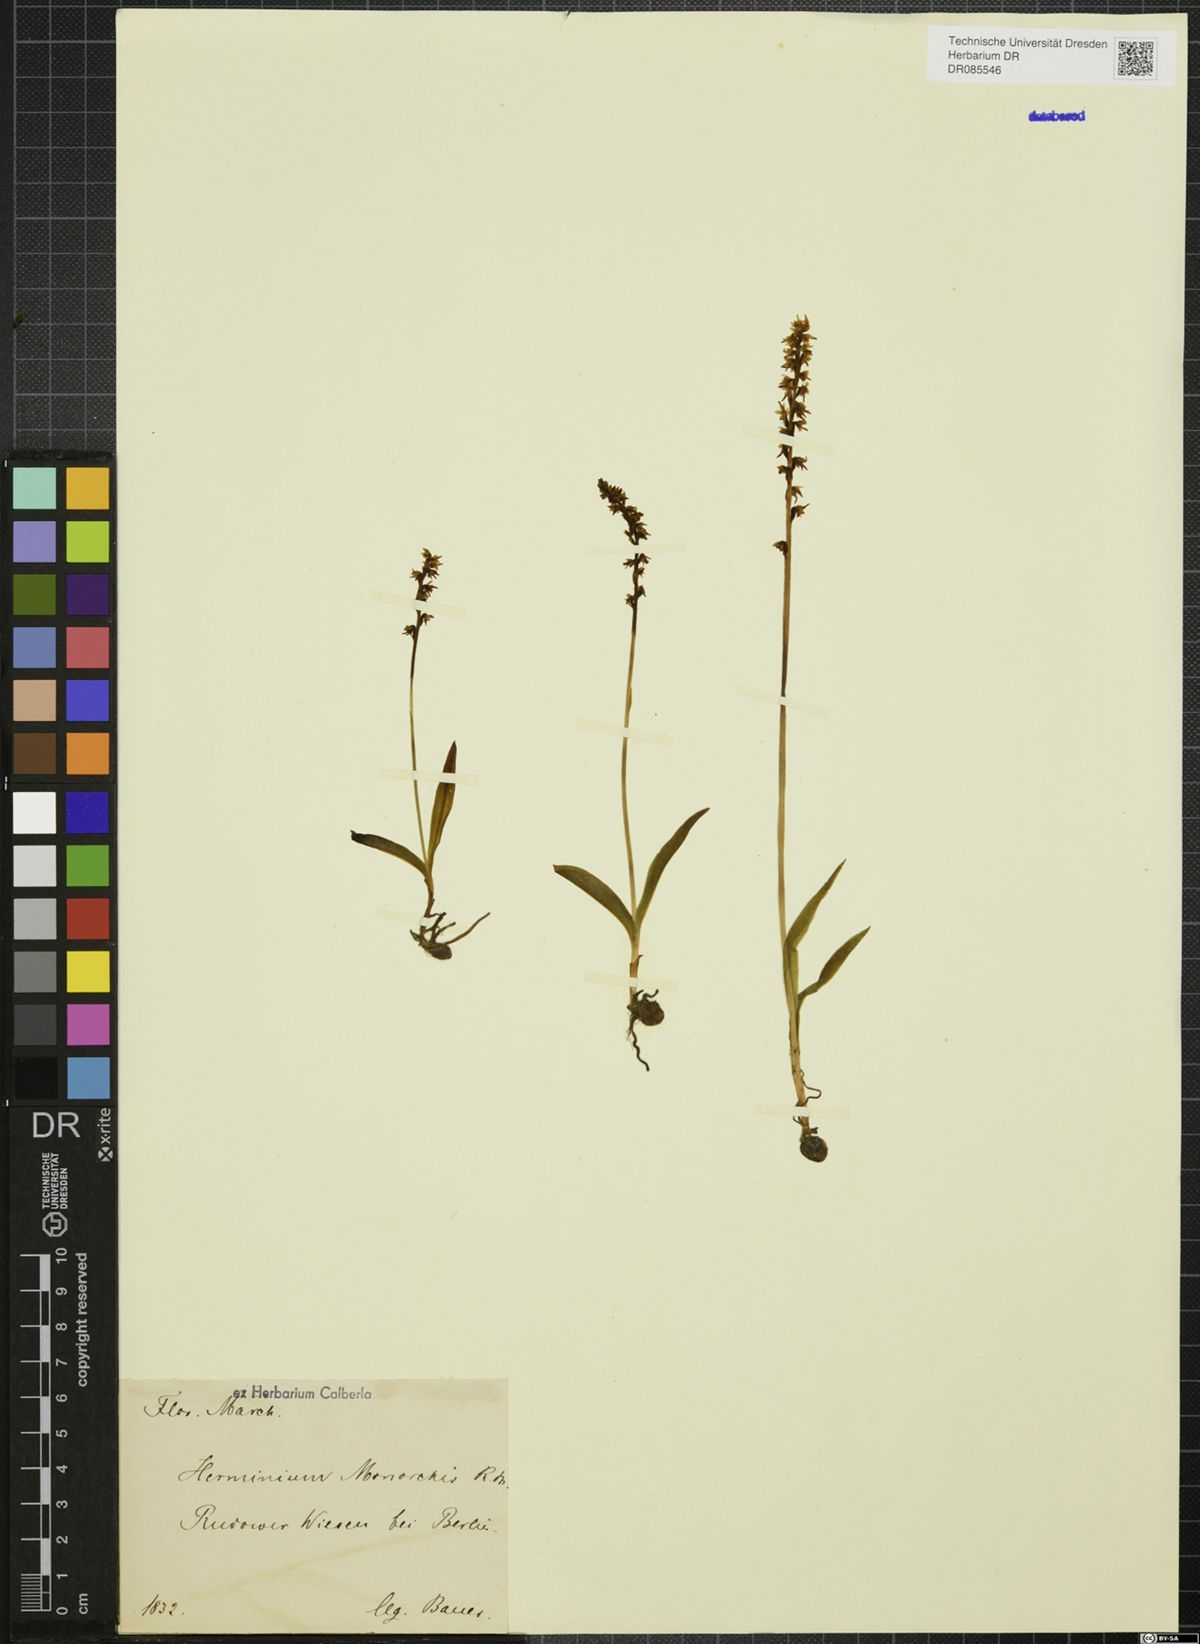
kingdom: Plantae
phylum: Tracheophyta
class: Liliopsida
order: Asparagales
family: Orchidaceae
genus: Herminium
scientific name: Herminium monorchis
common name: Musk orchid
